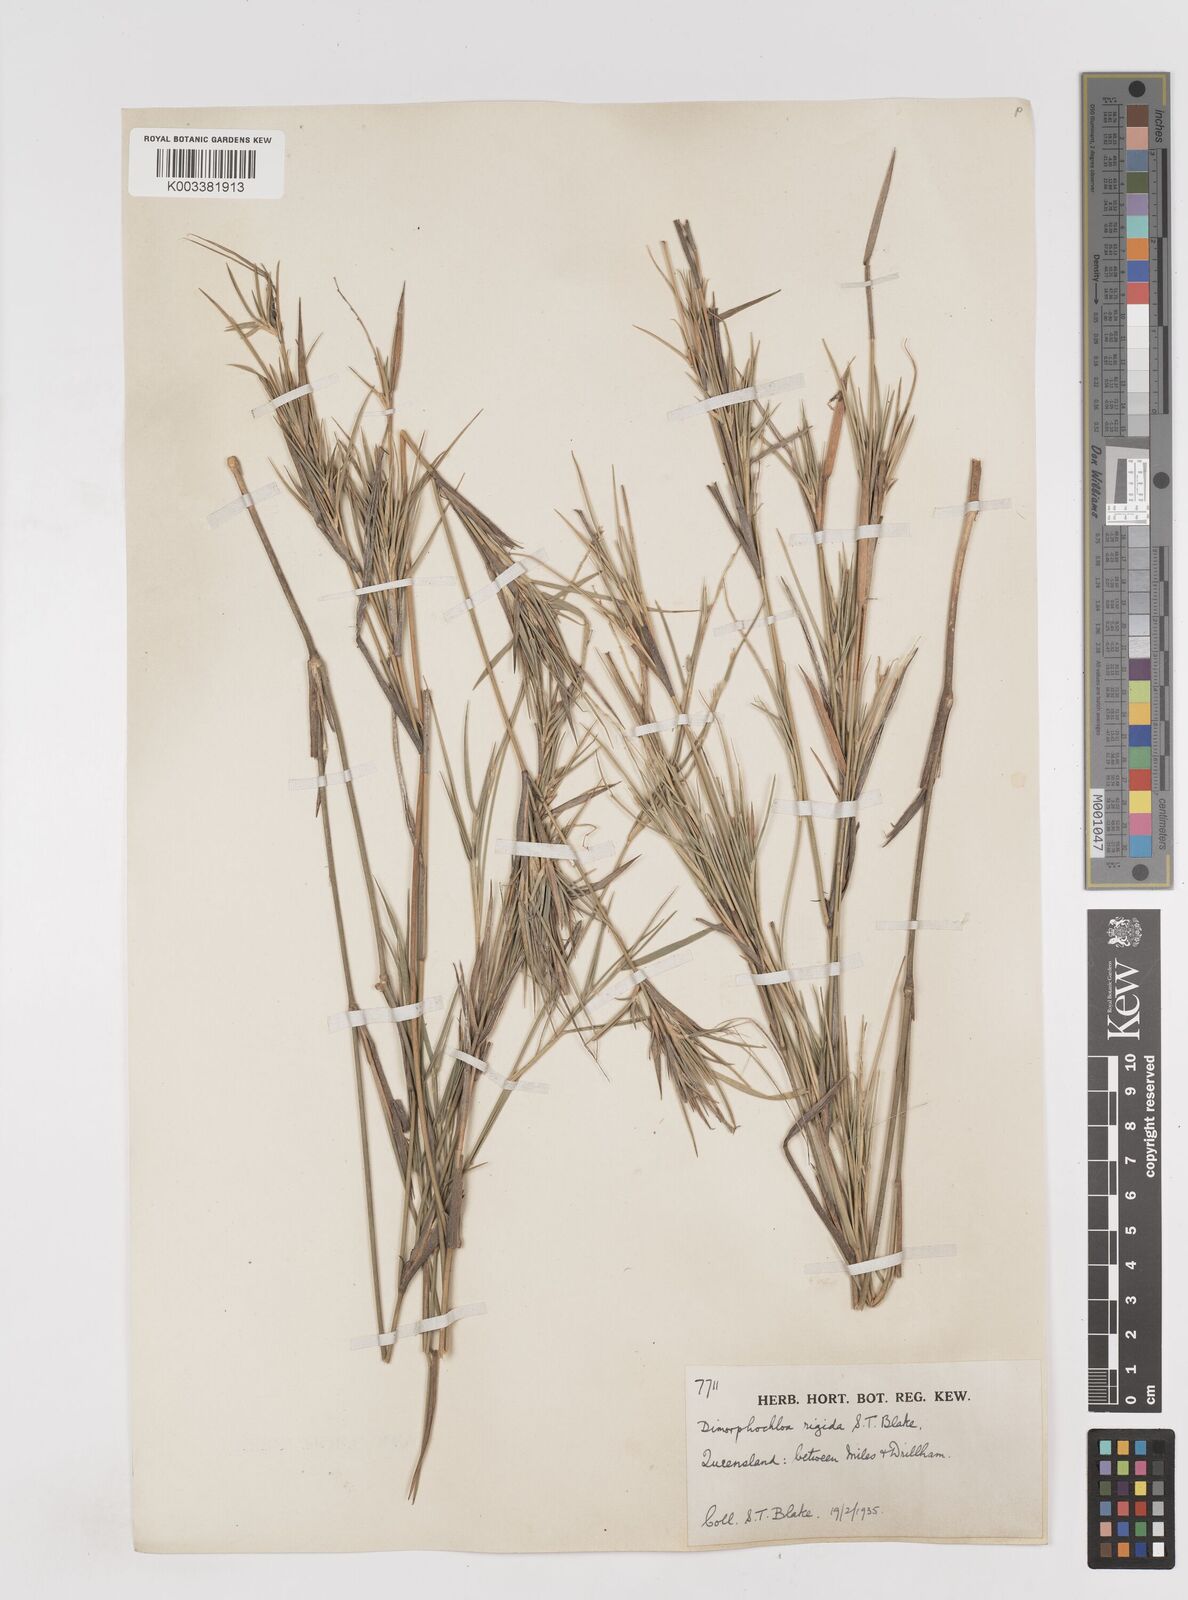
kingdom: Plantae
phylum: Tracheophyta
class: Liliopsida
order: Poales
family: Poaceae
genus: Dimorphochloa
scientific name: Dimorphochloa rigida
